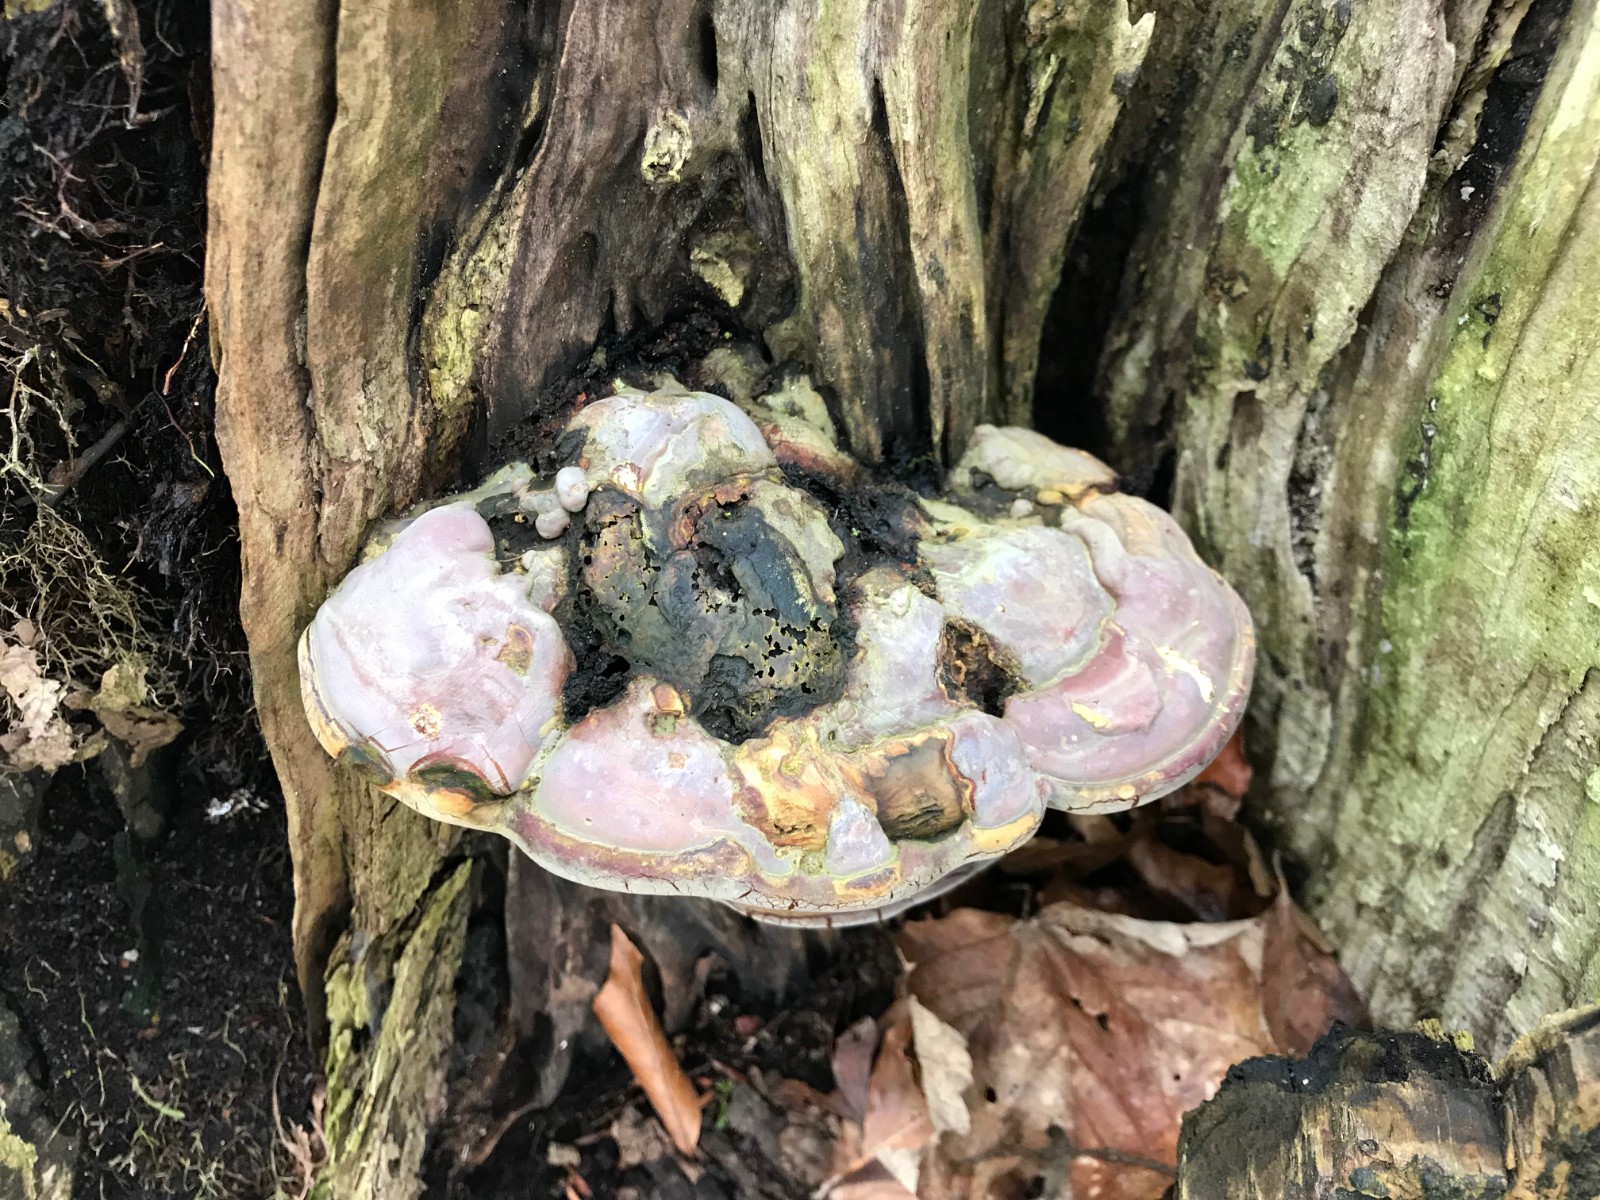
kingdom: Fungi
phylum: Basidiomycota
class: Agaricomycetes
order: Polyporales
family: Polyporaceae
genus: Ganoderma
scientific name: Ganoderma pfeifferi
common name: kobberrød lakporesvamp
